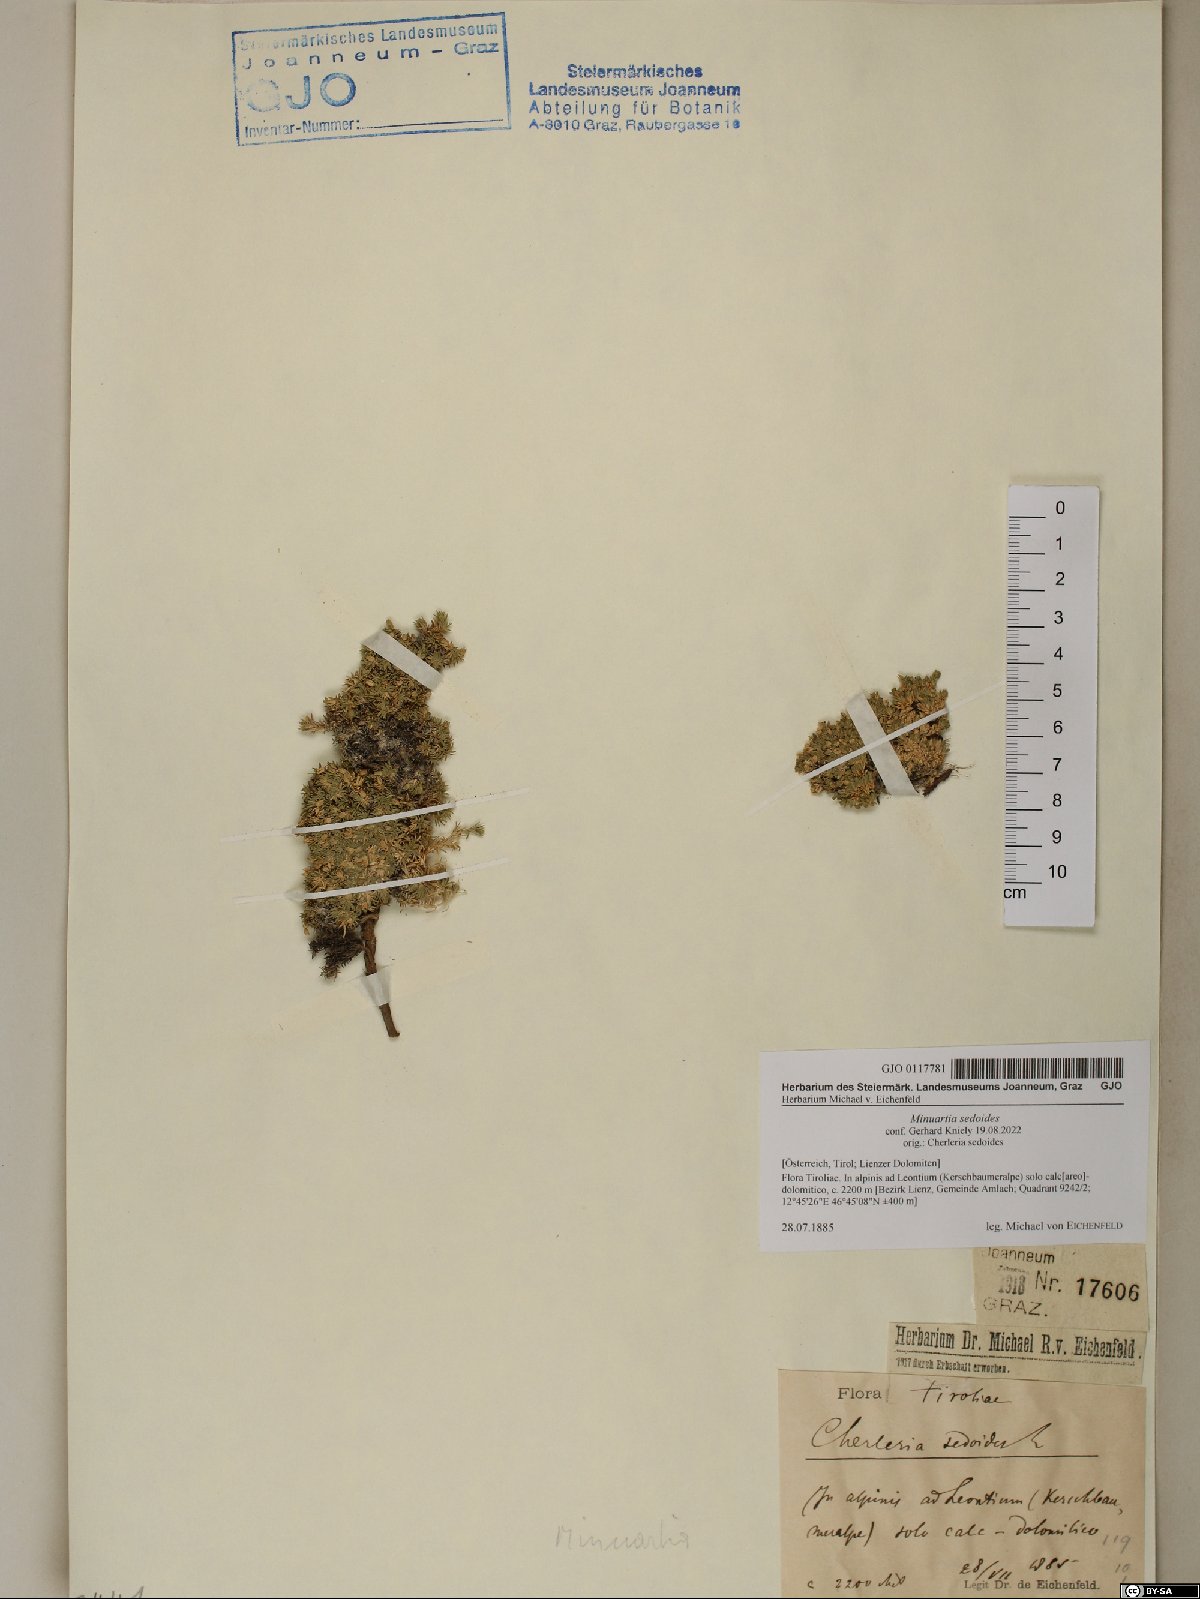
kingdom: Plantae
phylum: Tracheophyta
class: Magnoliopsida
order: Caryophyllales
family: Caryophyllaceae
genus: Cherleria
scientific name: Cherleria sedoides
